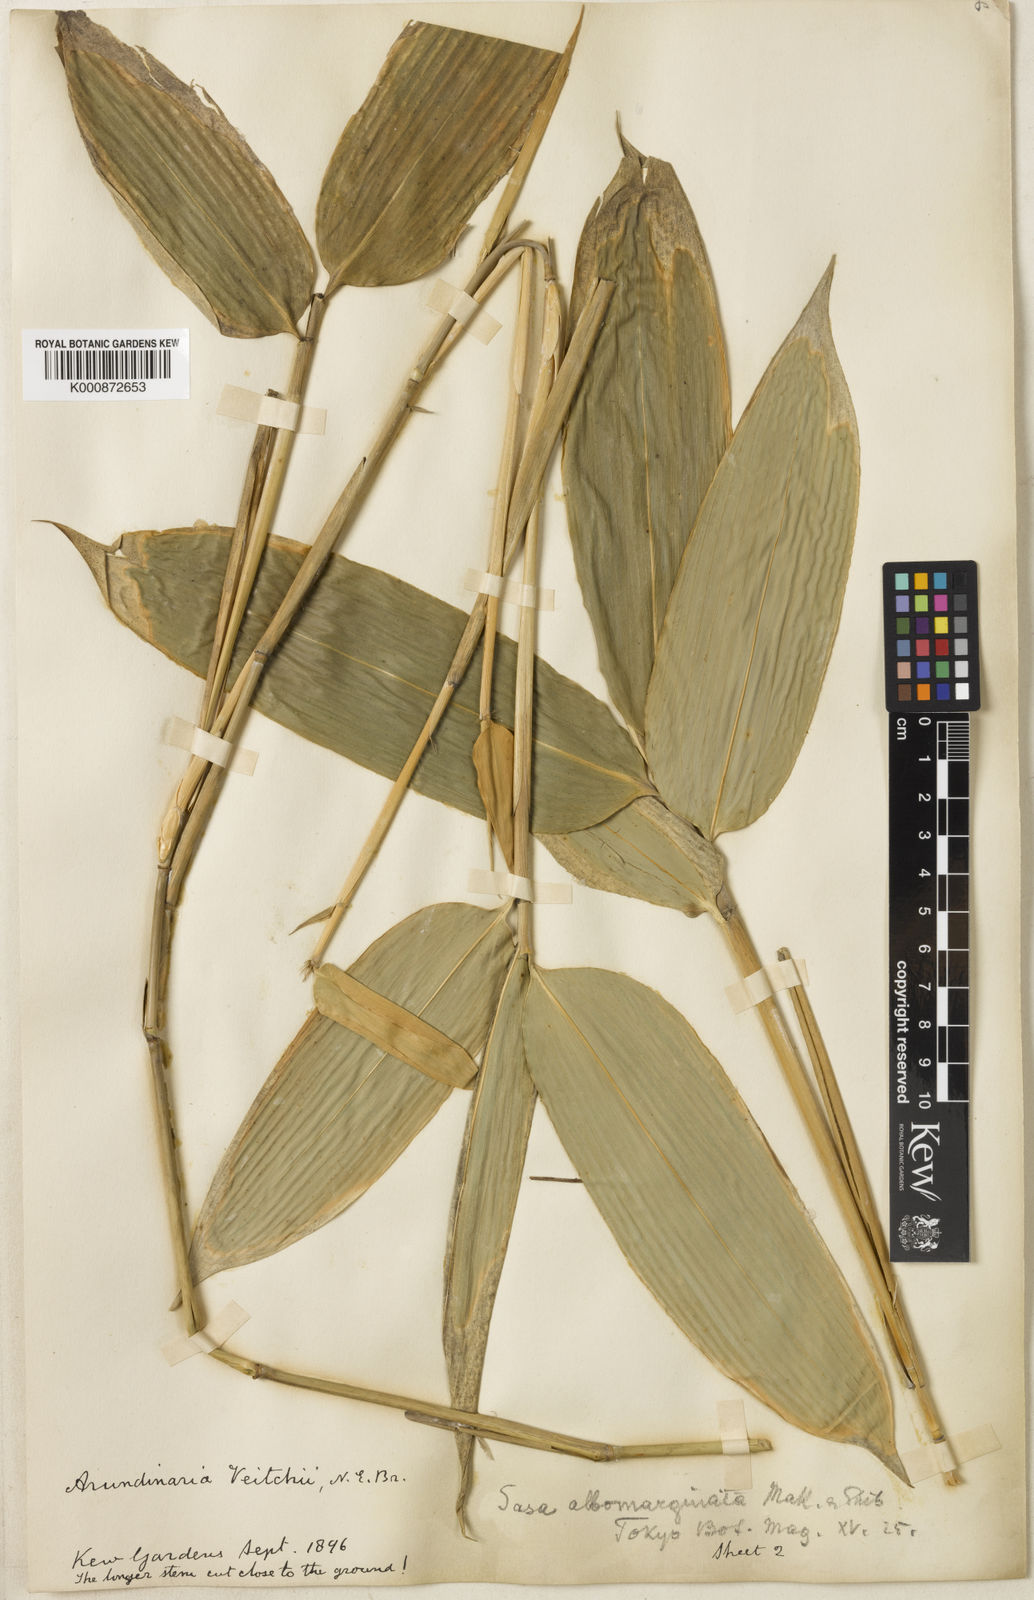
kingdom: Plantae
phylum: Tracheophyta
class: Liliopsida
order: Poales
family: Poaceae
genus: Sasa
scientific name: Sasa
